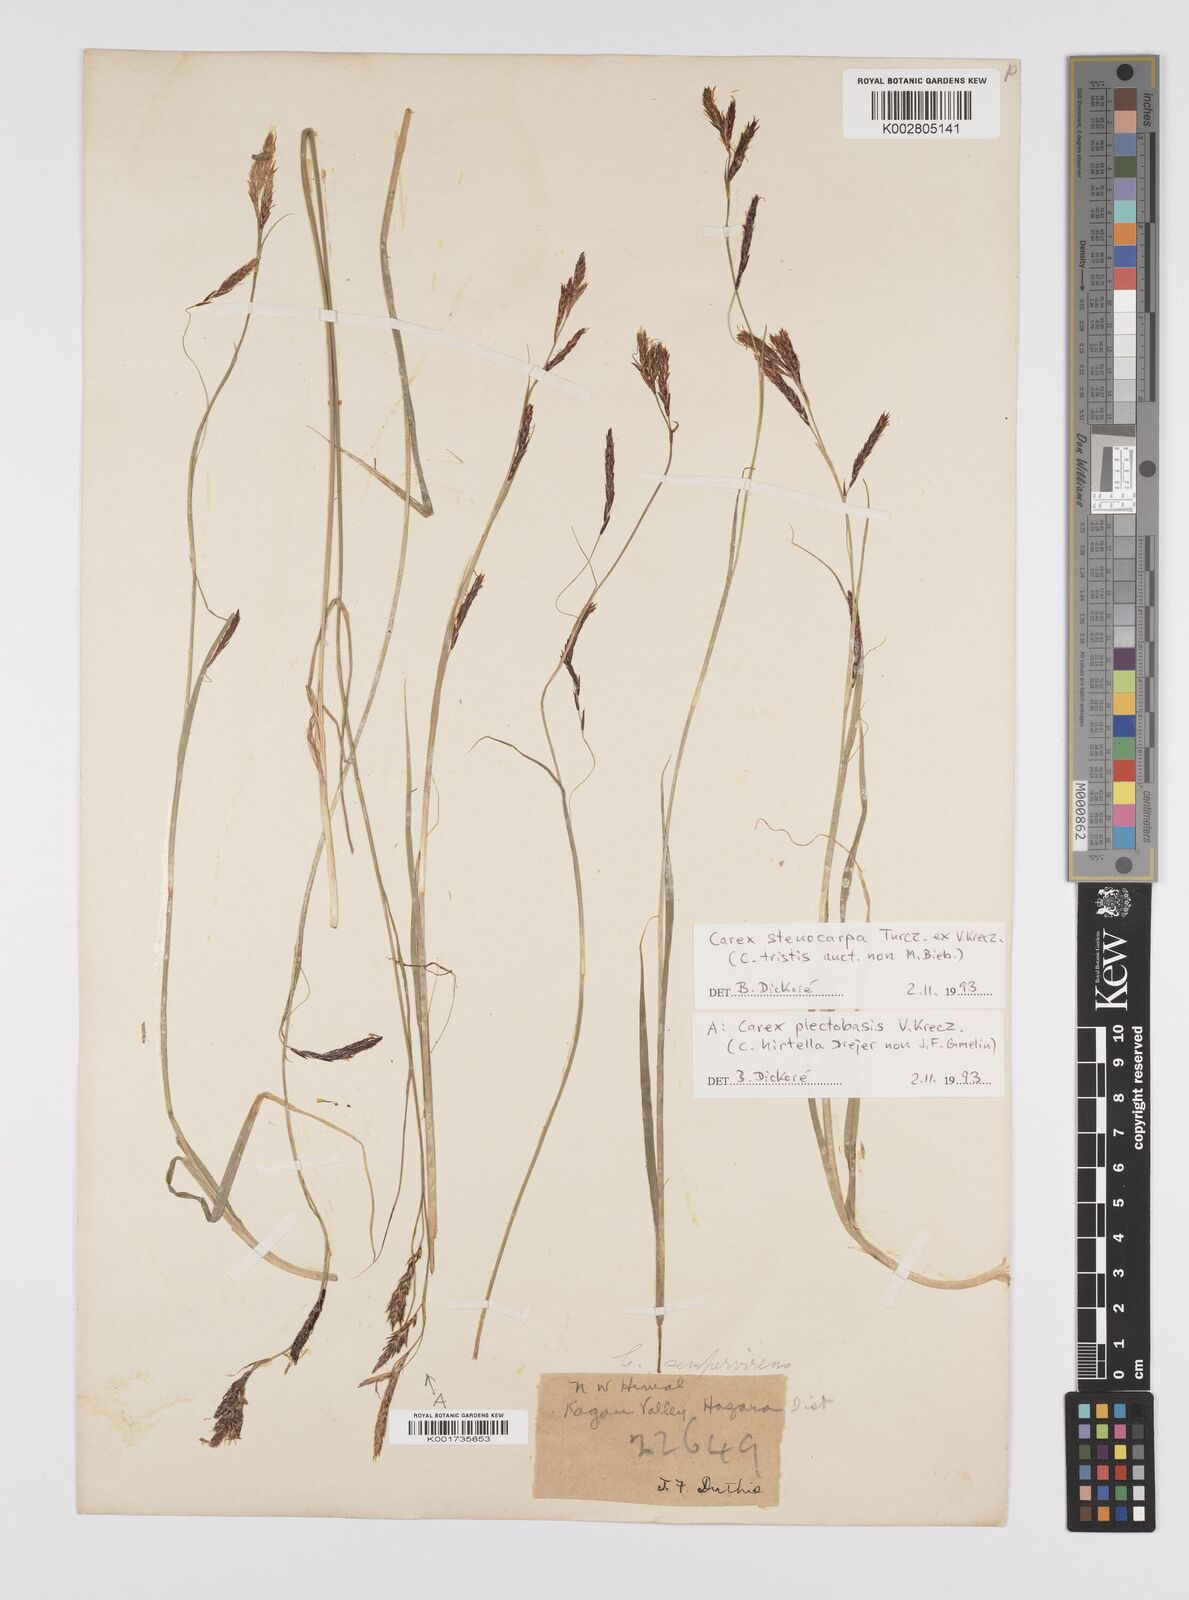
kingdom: Plantae
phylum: Tracheophyta
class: Liliopsida
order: Poales
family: Cyperaceae
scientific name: Cyperaceae
